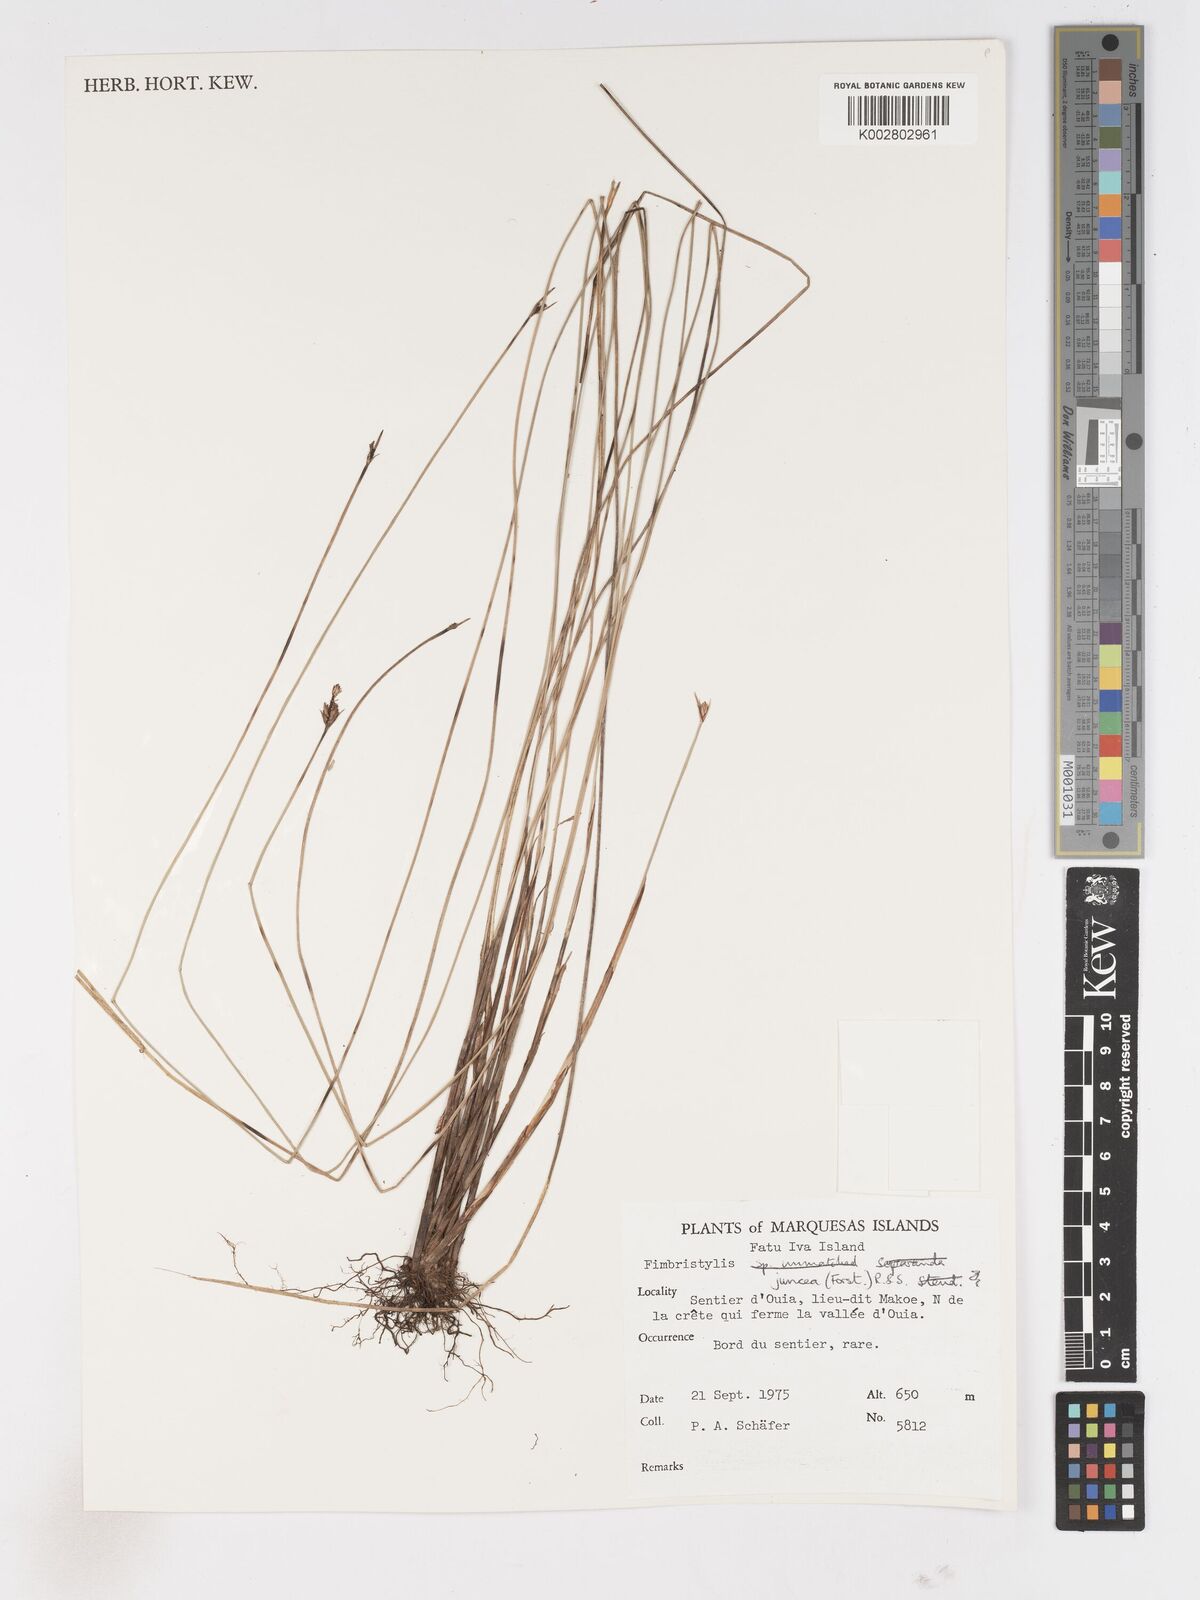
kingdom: Plantae
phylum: Tracheophyta
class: Liliopsida
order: Poales
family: Cyperaceae
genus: Fimbristylis
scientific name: Fimbristylis juncea
